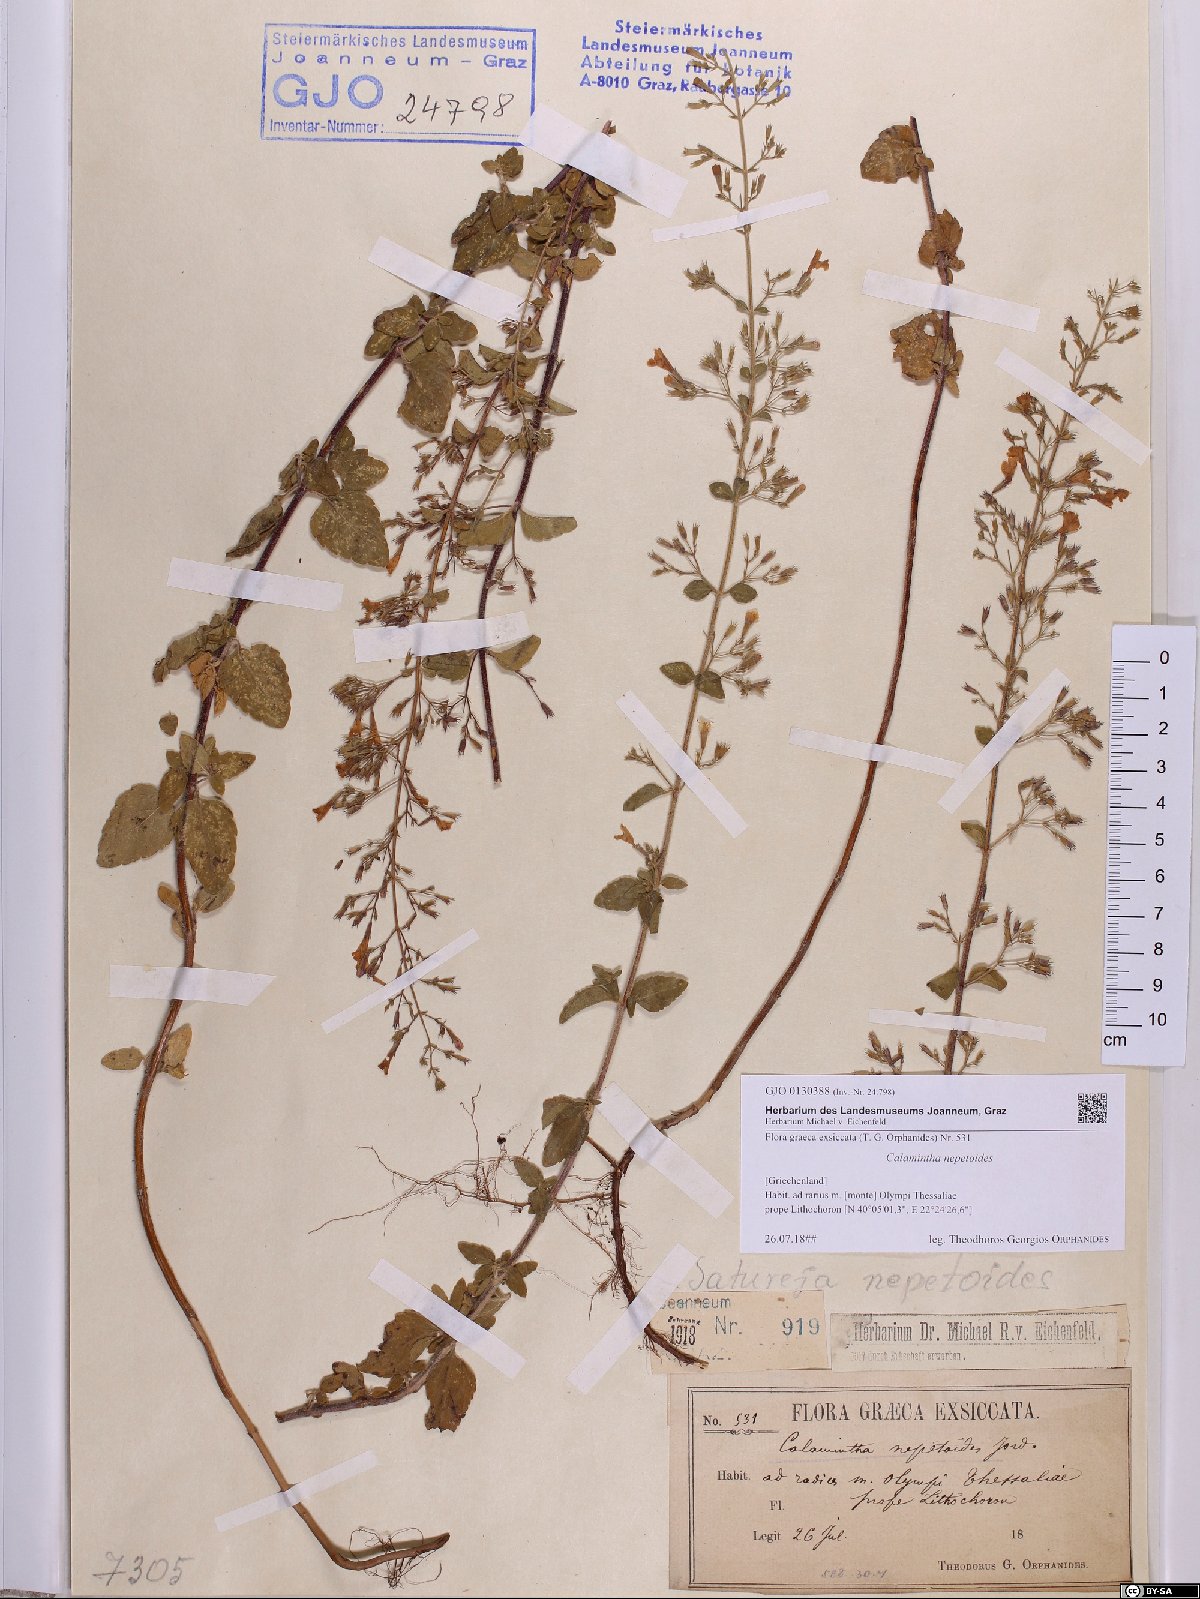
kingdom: Plantae
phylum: Tracheophyta
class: Magnoliopsida
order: Lamiales
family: Lamiaceae
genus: Clinopodium
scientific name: Clinopodium nepeta
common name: Lesser calamint
